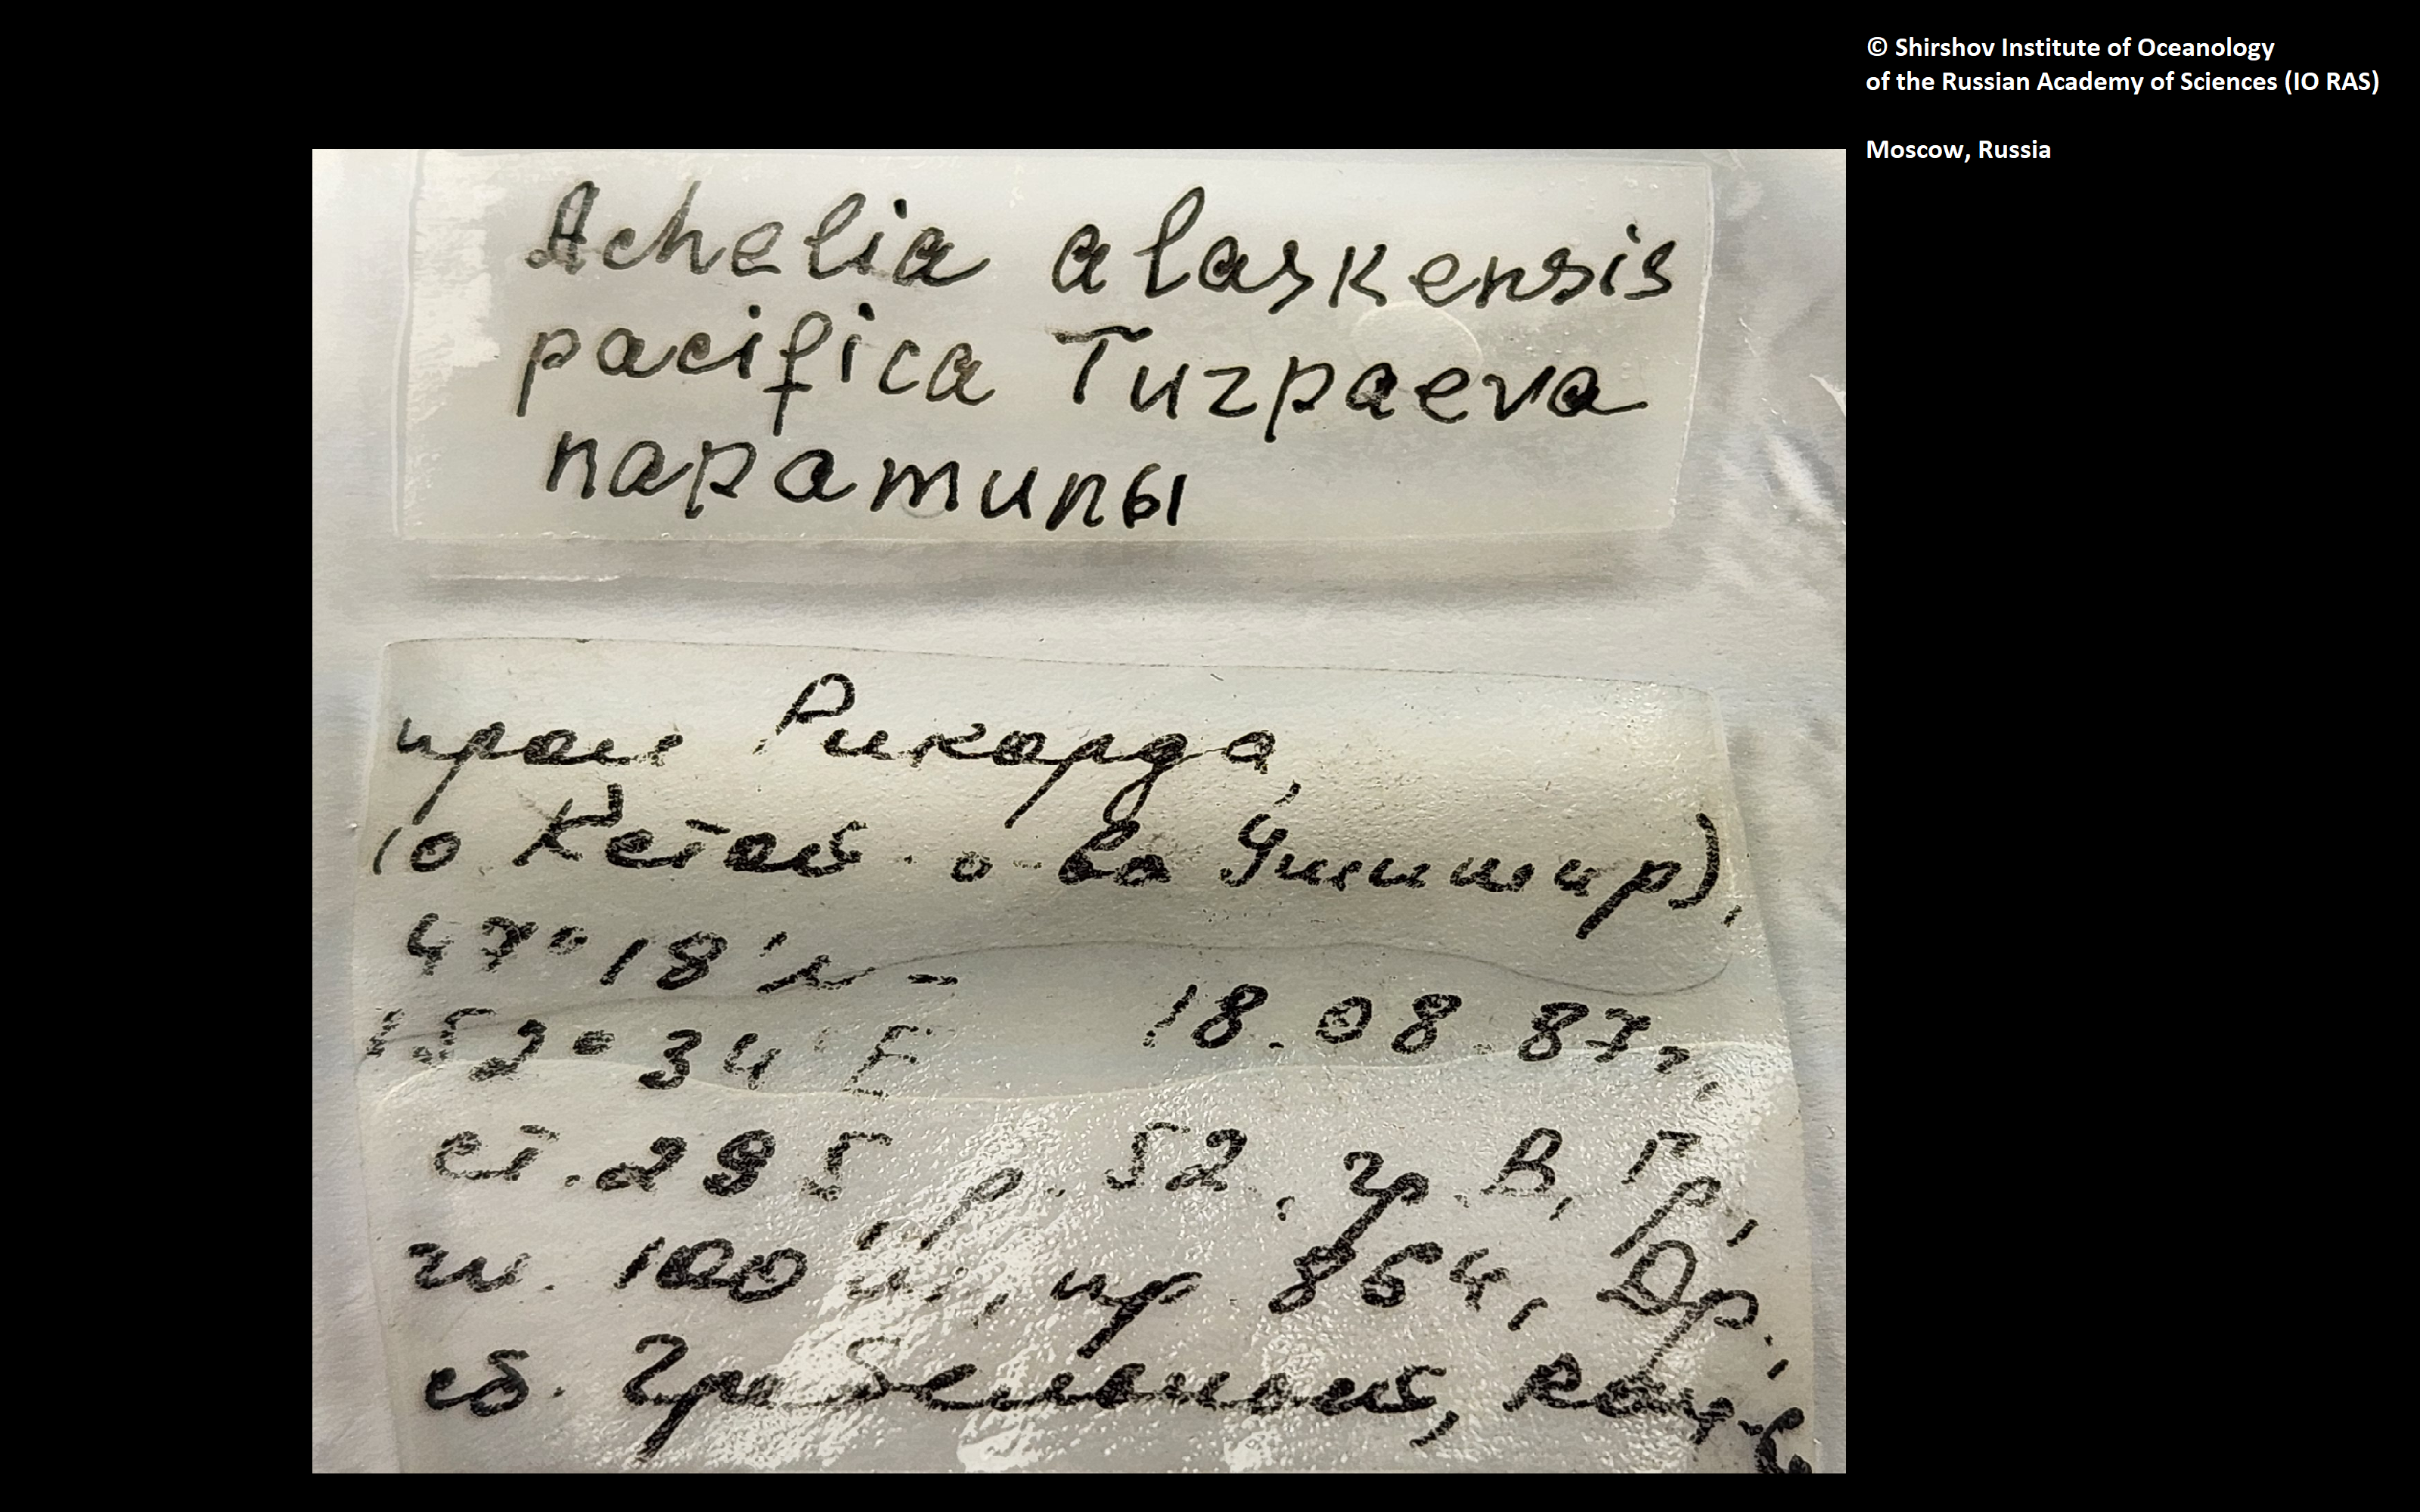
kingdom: Animalia
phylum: Arthropoda
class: Pycnogonida
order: Pantopoda
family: Ammotheidae
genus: Achelia
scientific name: Achelia alaskensis
